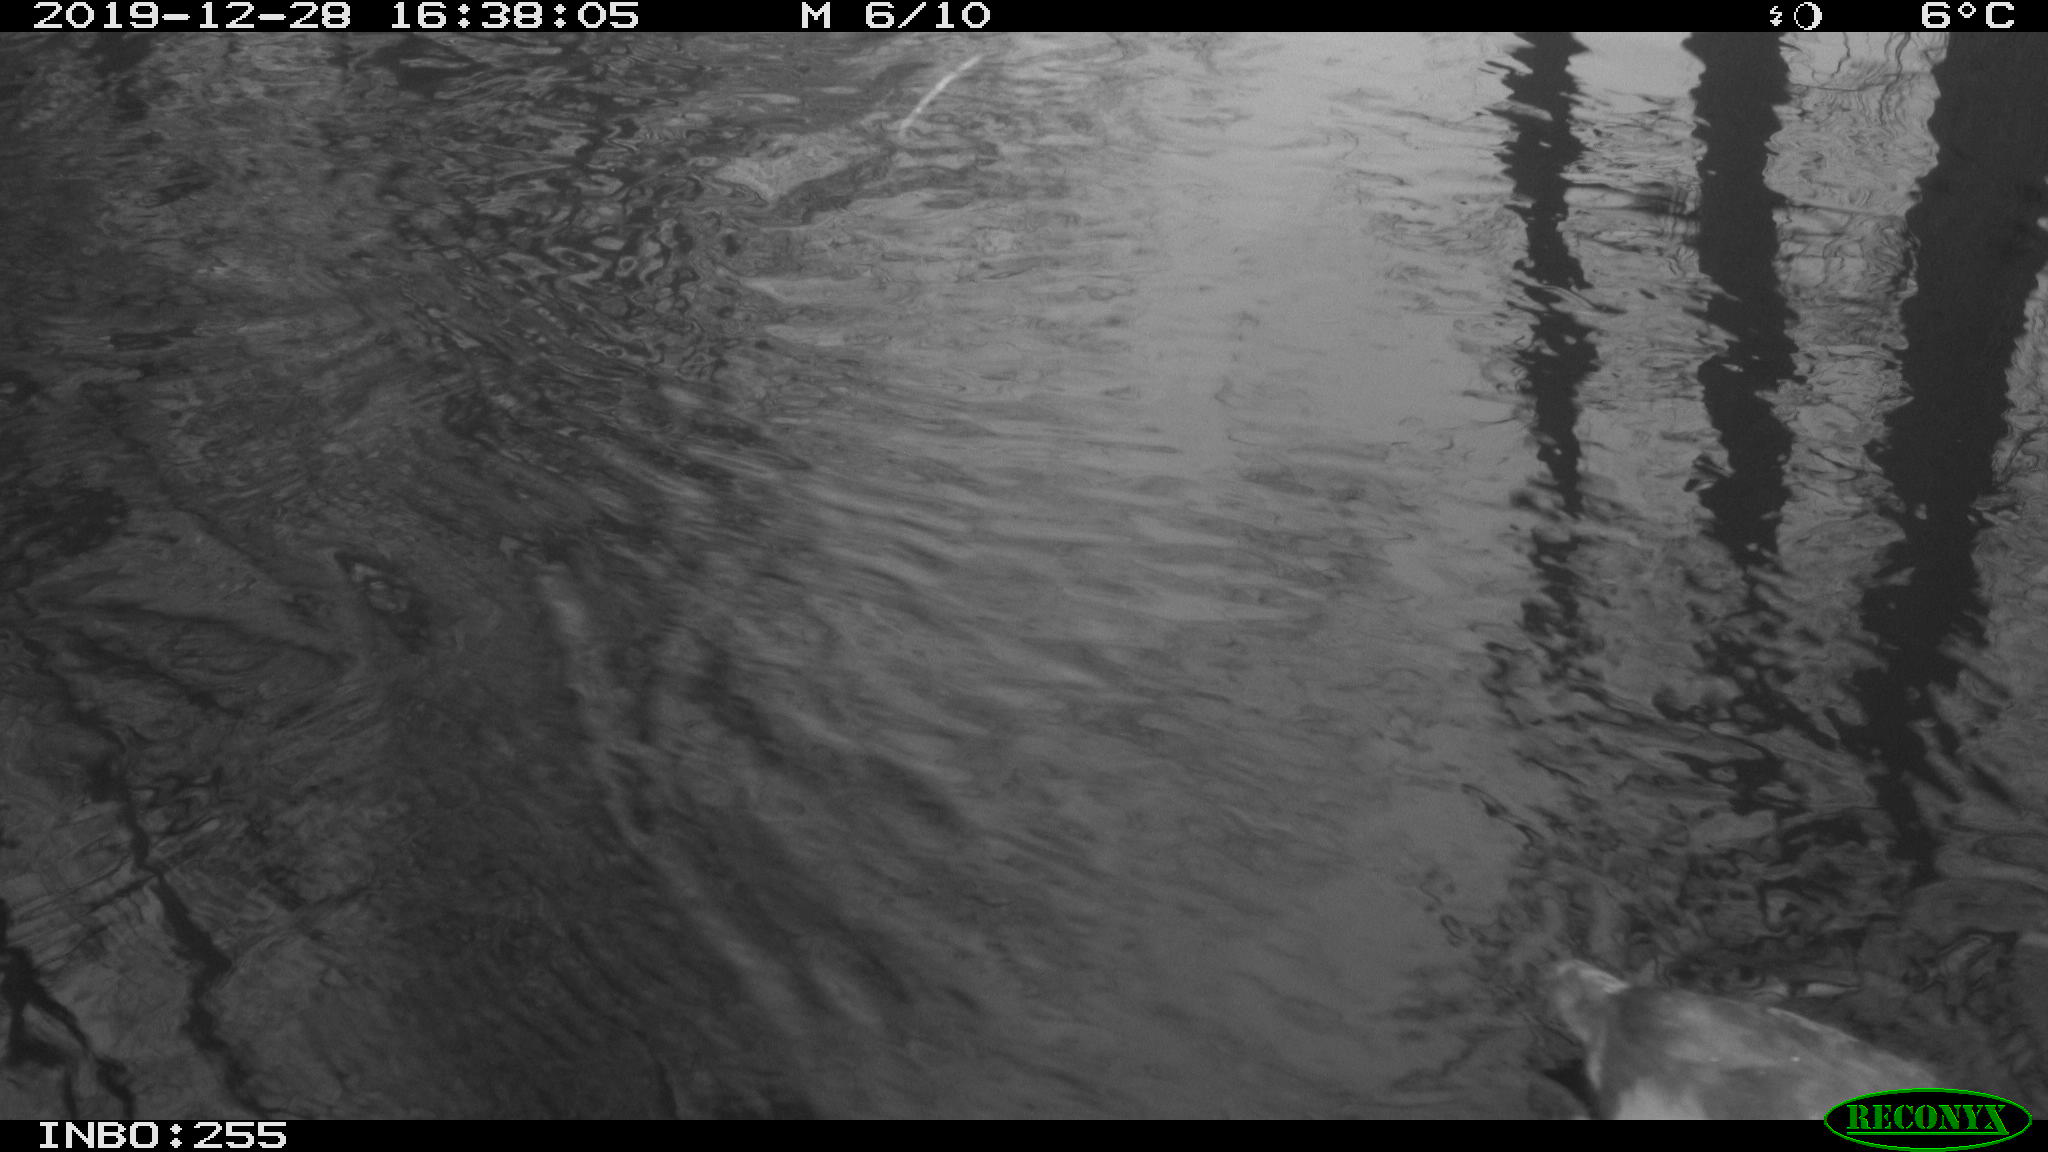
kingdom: Animalia
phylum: Chordata
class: Aves
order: Gruiformes
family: Rallidae
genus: Fulica
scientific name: Fulica atra
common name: Eurasian coot
